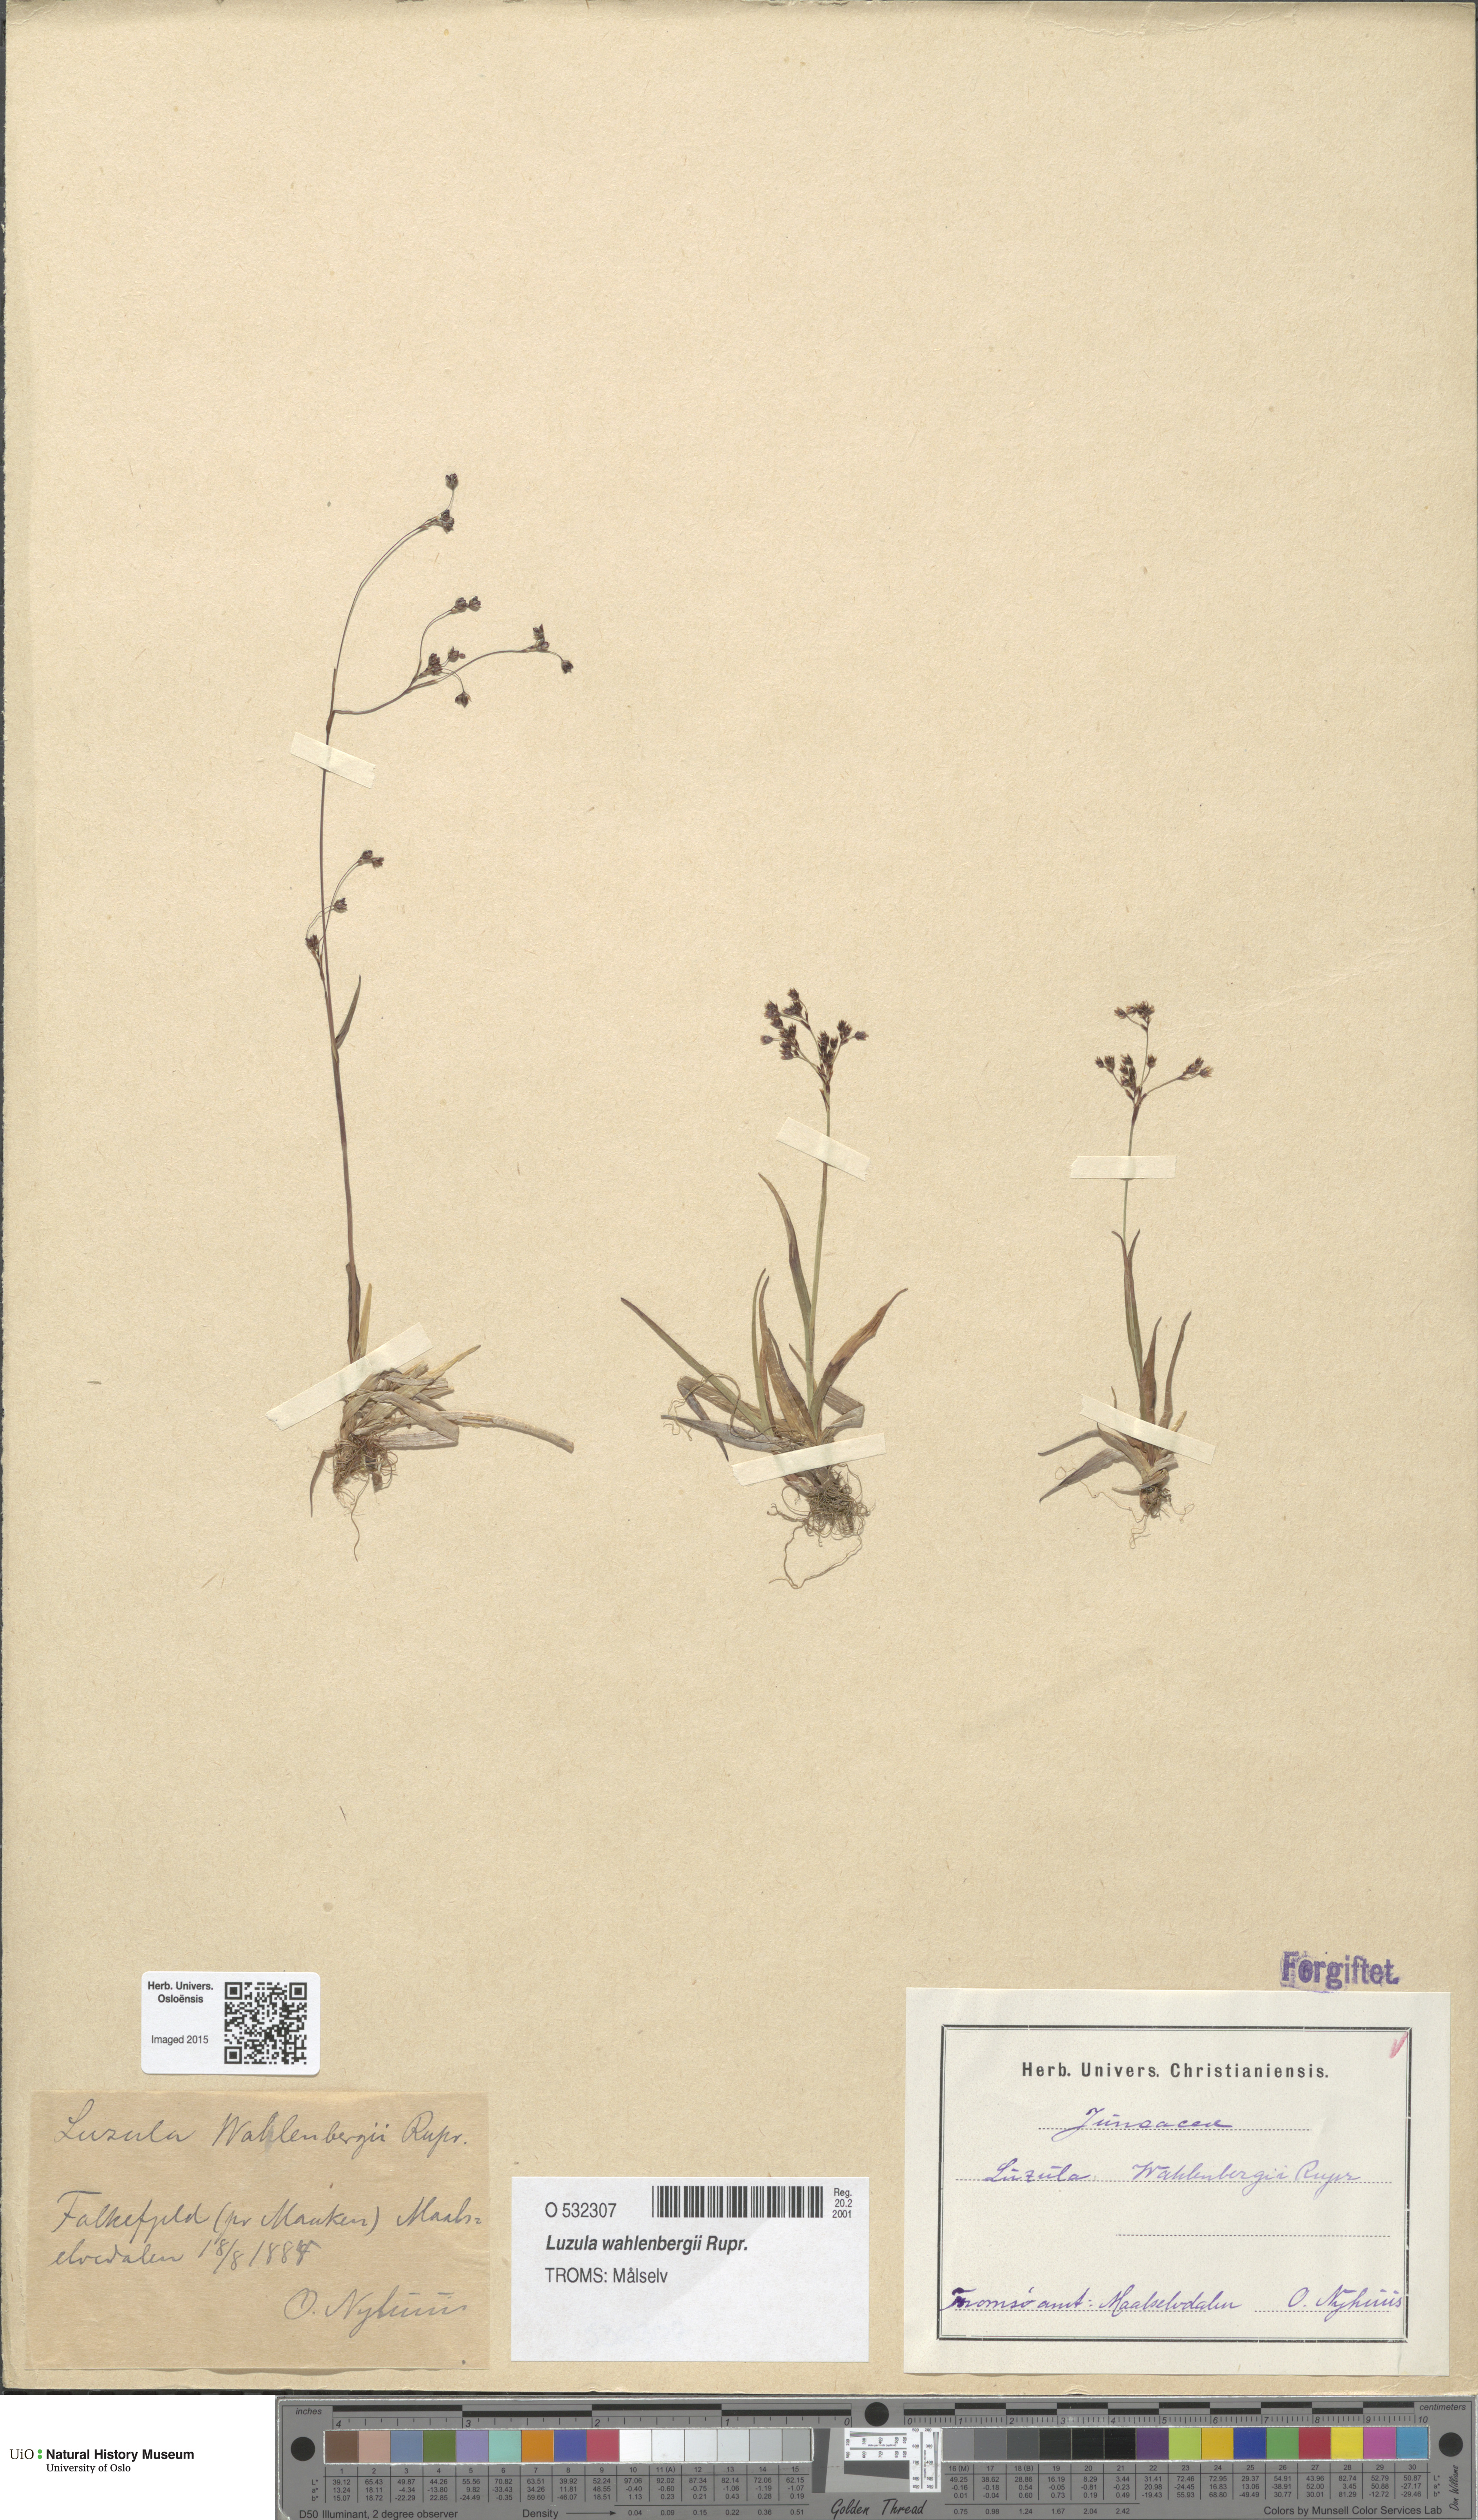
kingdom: Plantae
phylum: Tracheophyta
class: Liliopsida
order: Poales
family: Juncaceae
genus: Luzula
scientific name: Luzula wahlenbergii
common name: Wahlenberg's wood-rush
